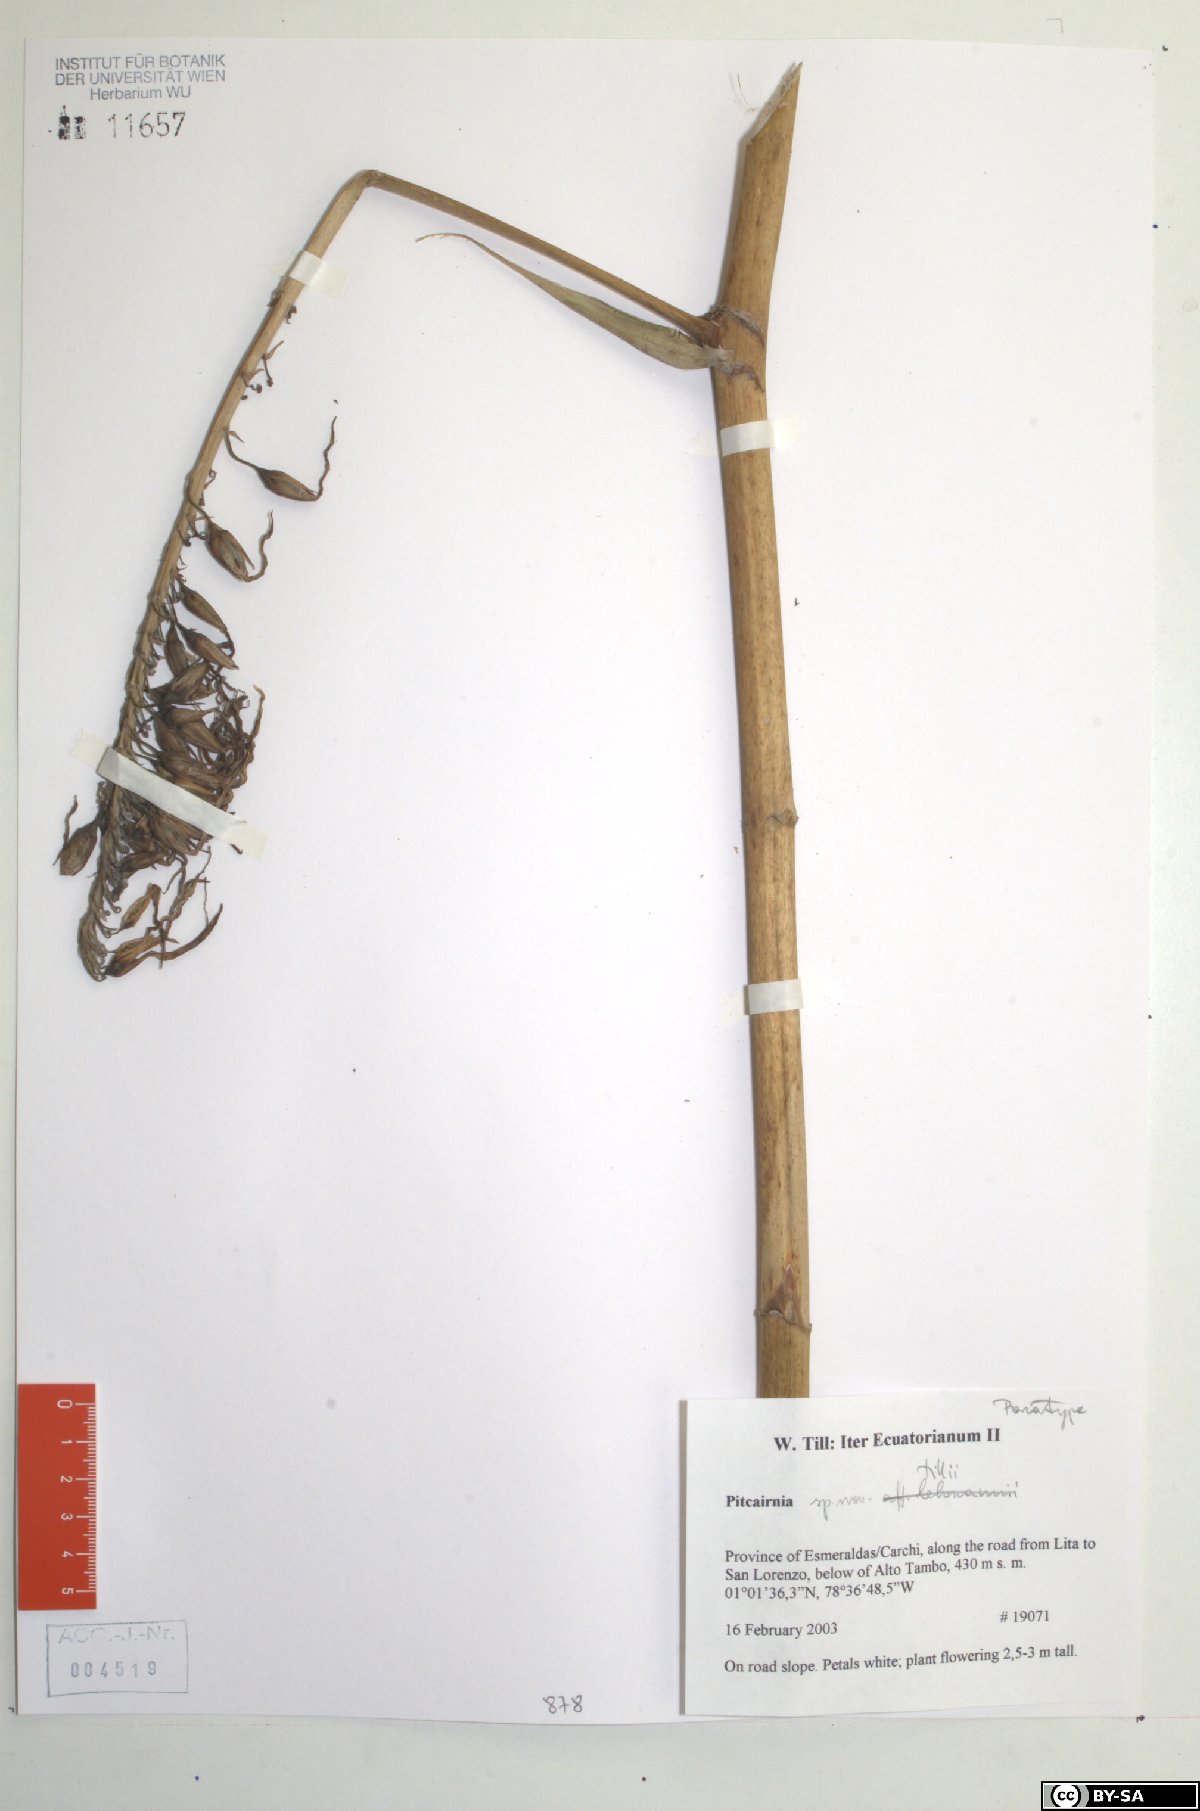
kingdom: Plantae
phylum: Tracheophyta
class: Liliopsida
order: Poales
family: Bromeliaceae
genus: Pitcairnia
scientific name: Pitcairnia tillii
